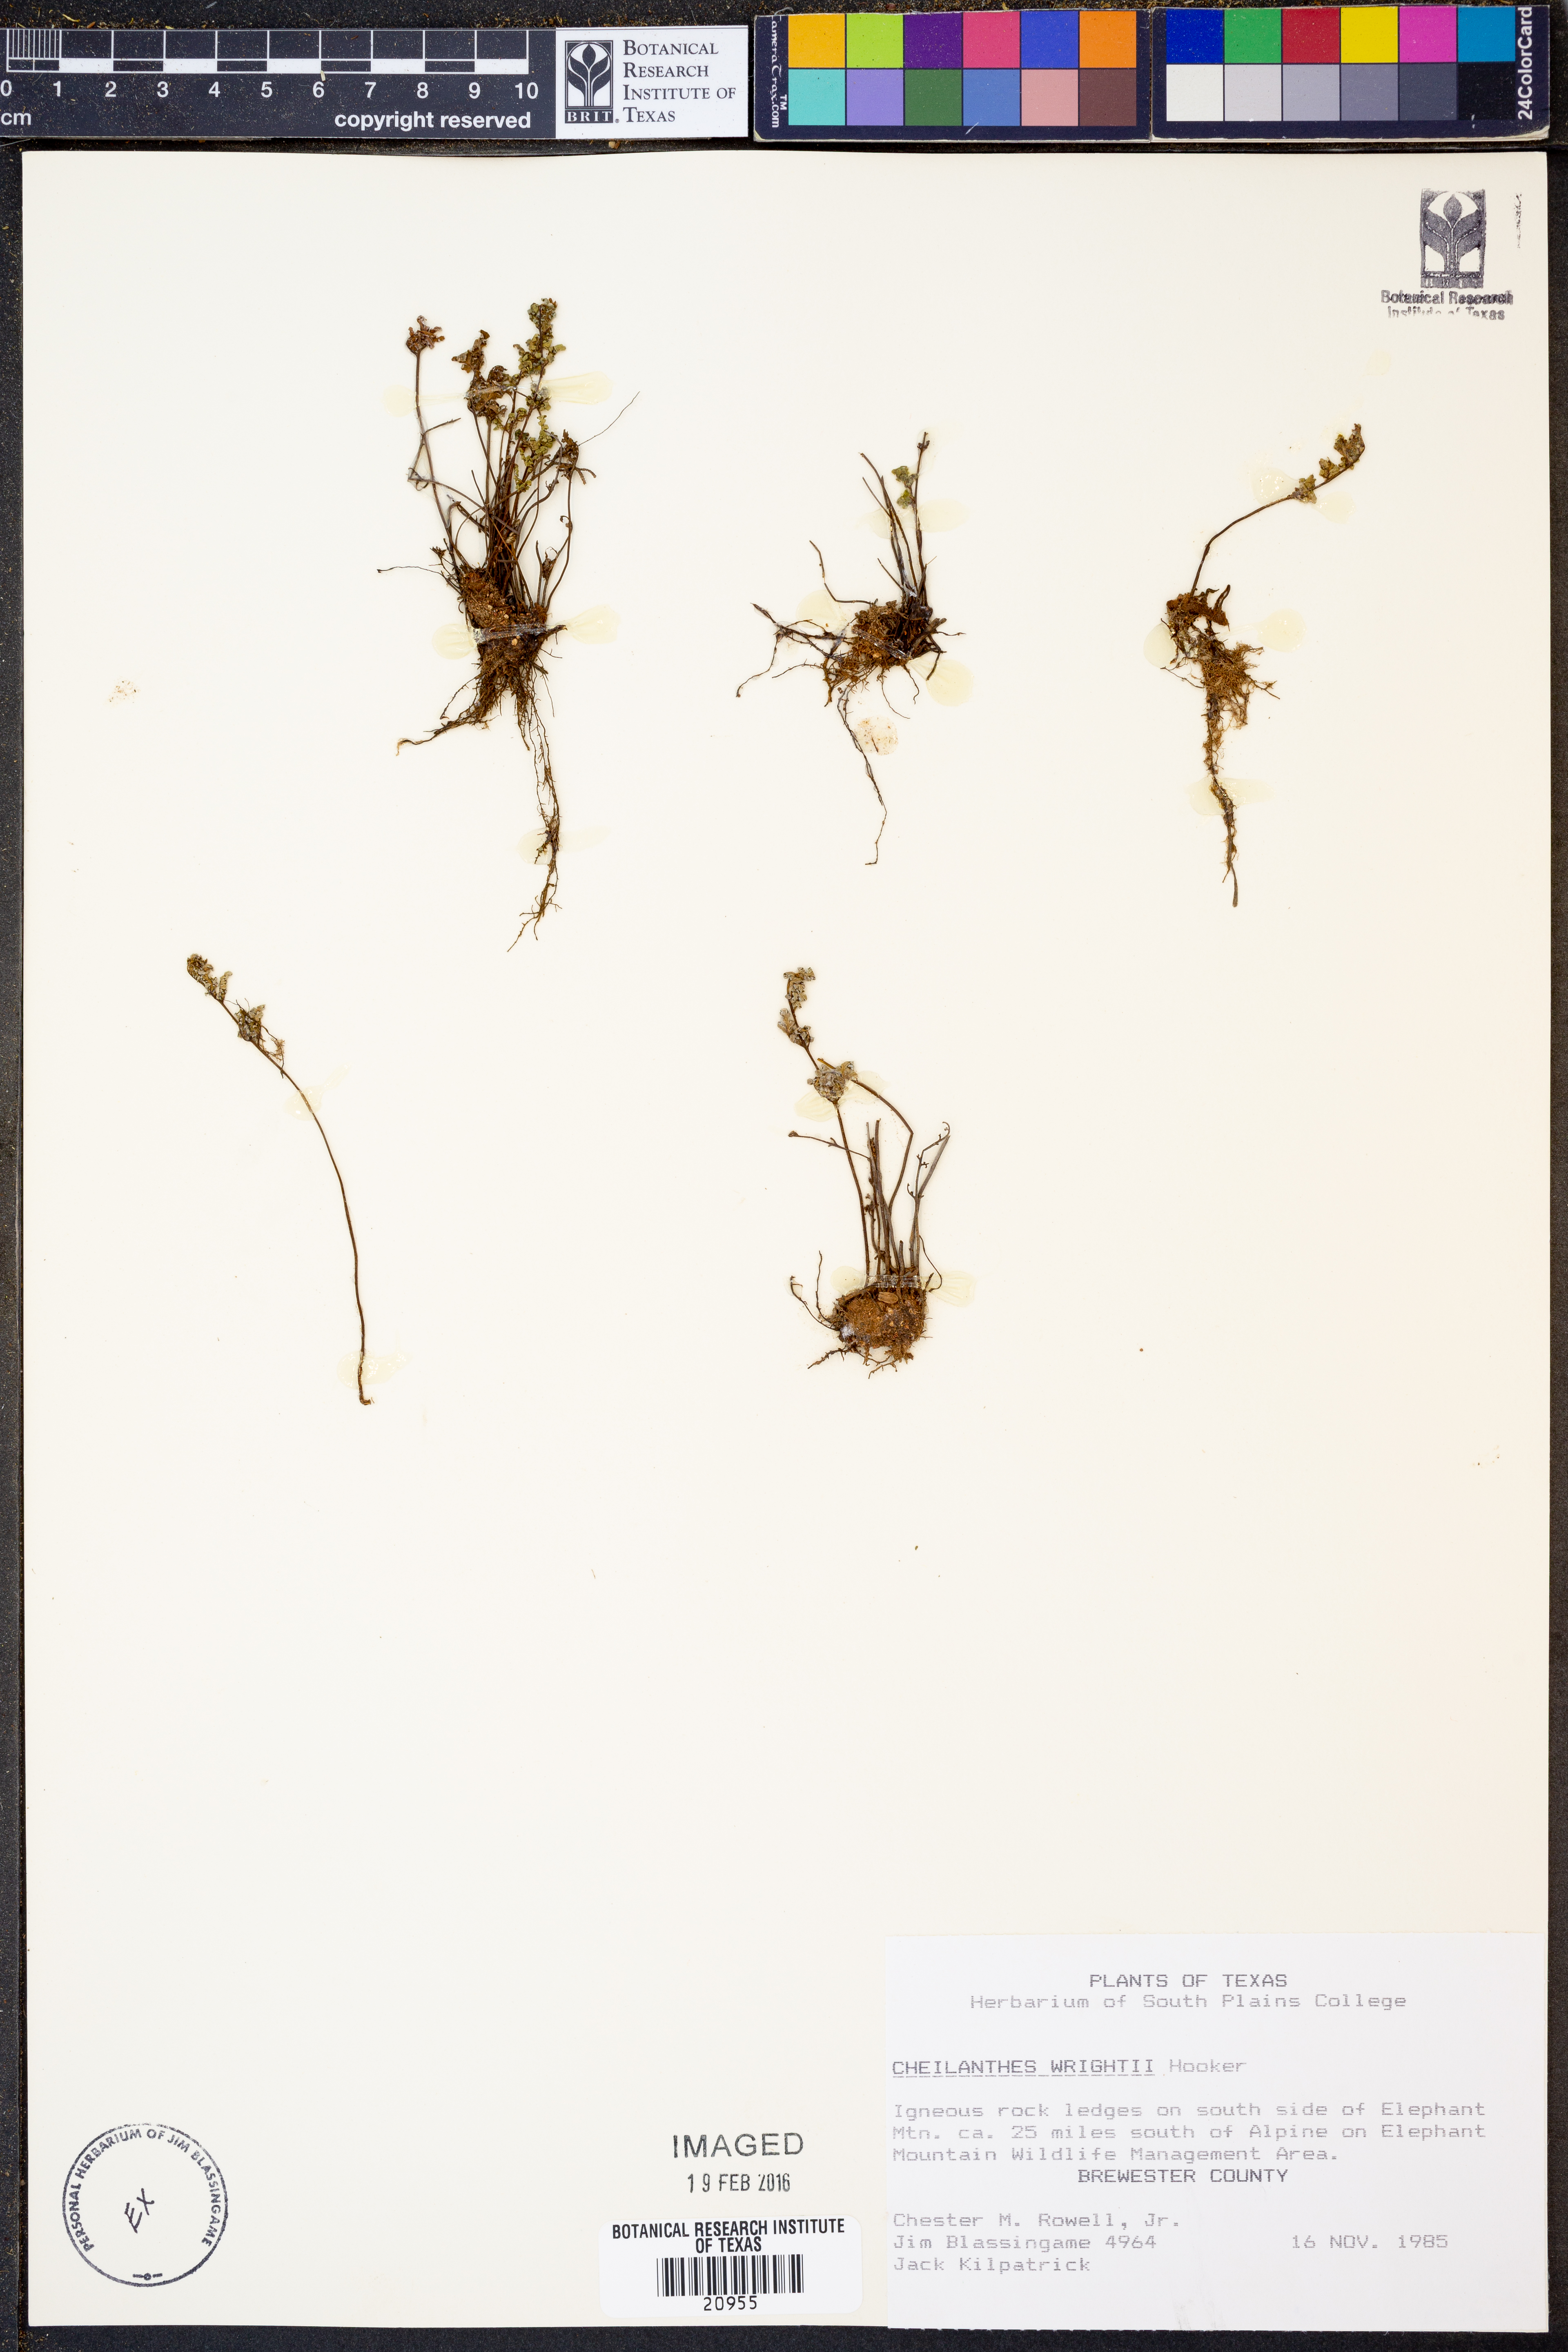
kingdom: Plantae
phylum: Tracheophyta
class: Polypodiopsida
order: Polypodiales
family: Pteridaceae
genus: Myriopteris
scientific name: Myriopteris wrightii
